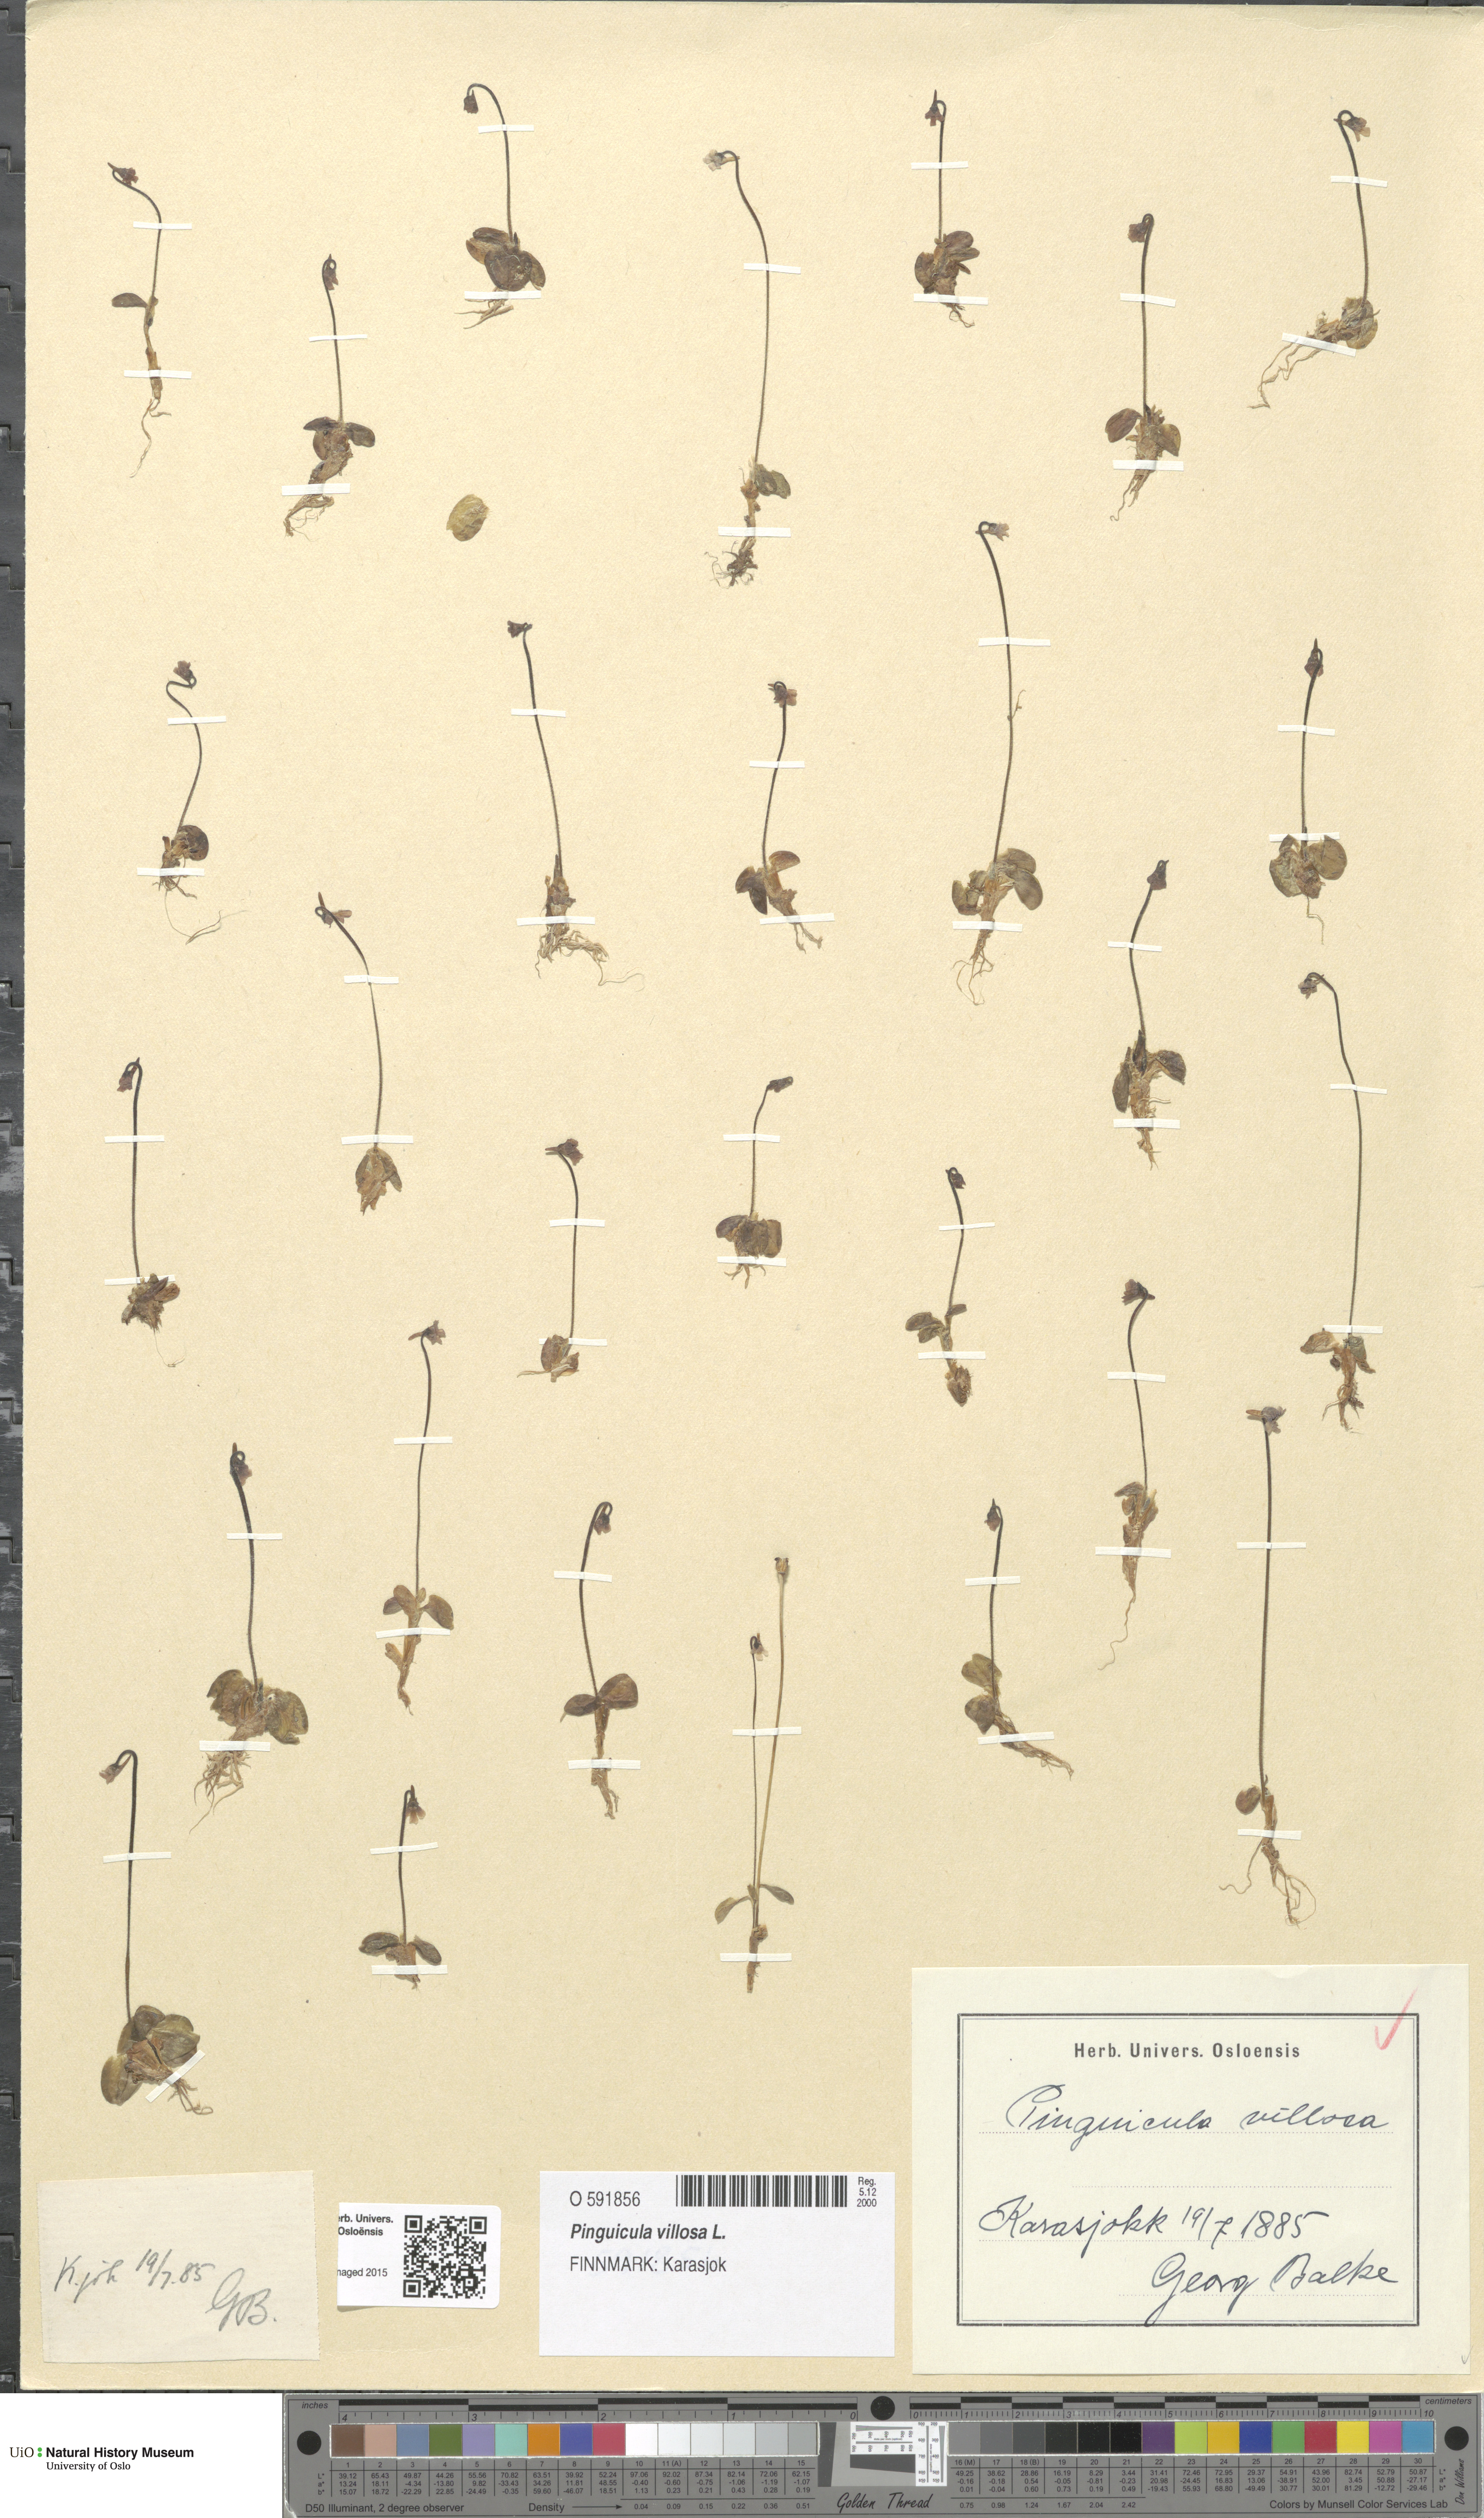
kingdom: Plantae
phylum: Tracheophyta
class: Magnoliopsida
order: Lamiales
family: Lentibulariaceae
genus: Pinguicula
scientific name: Pinguicula villosa
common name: Hairy butterwort
